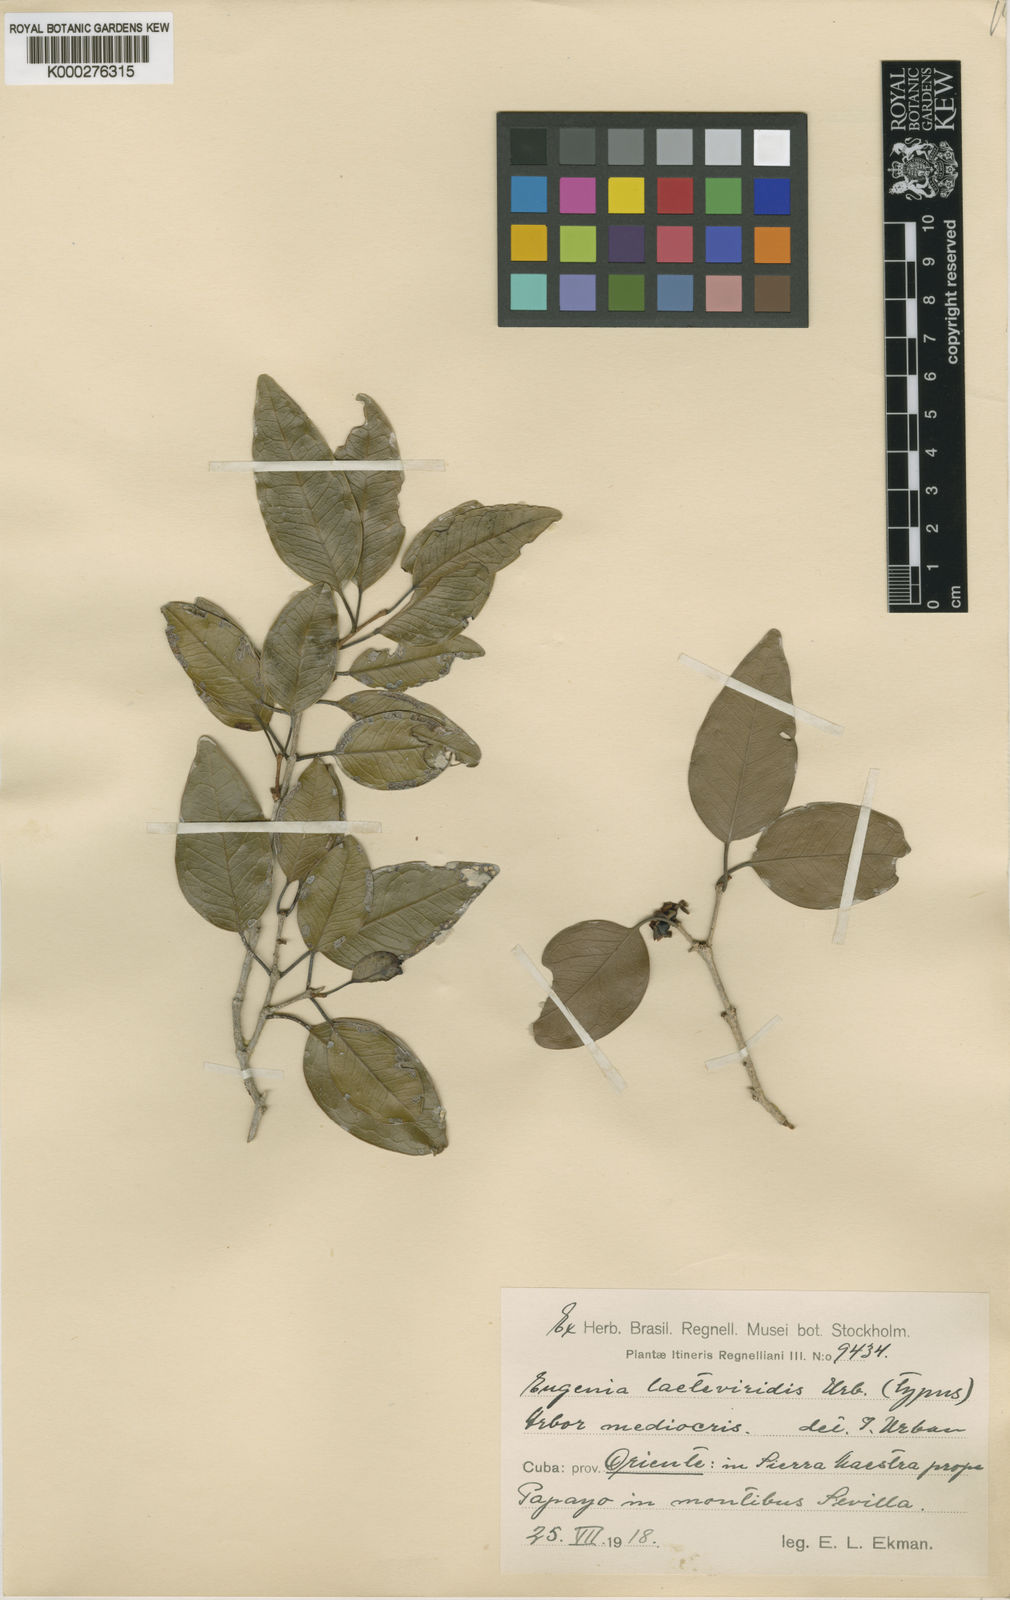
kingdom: Plantae
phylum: Tracheophyta
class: Magnoliopsida
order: Myrtales
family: Myrtaceae
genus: Eugenia
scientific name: Eugenia laeteviridis
